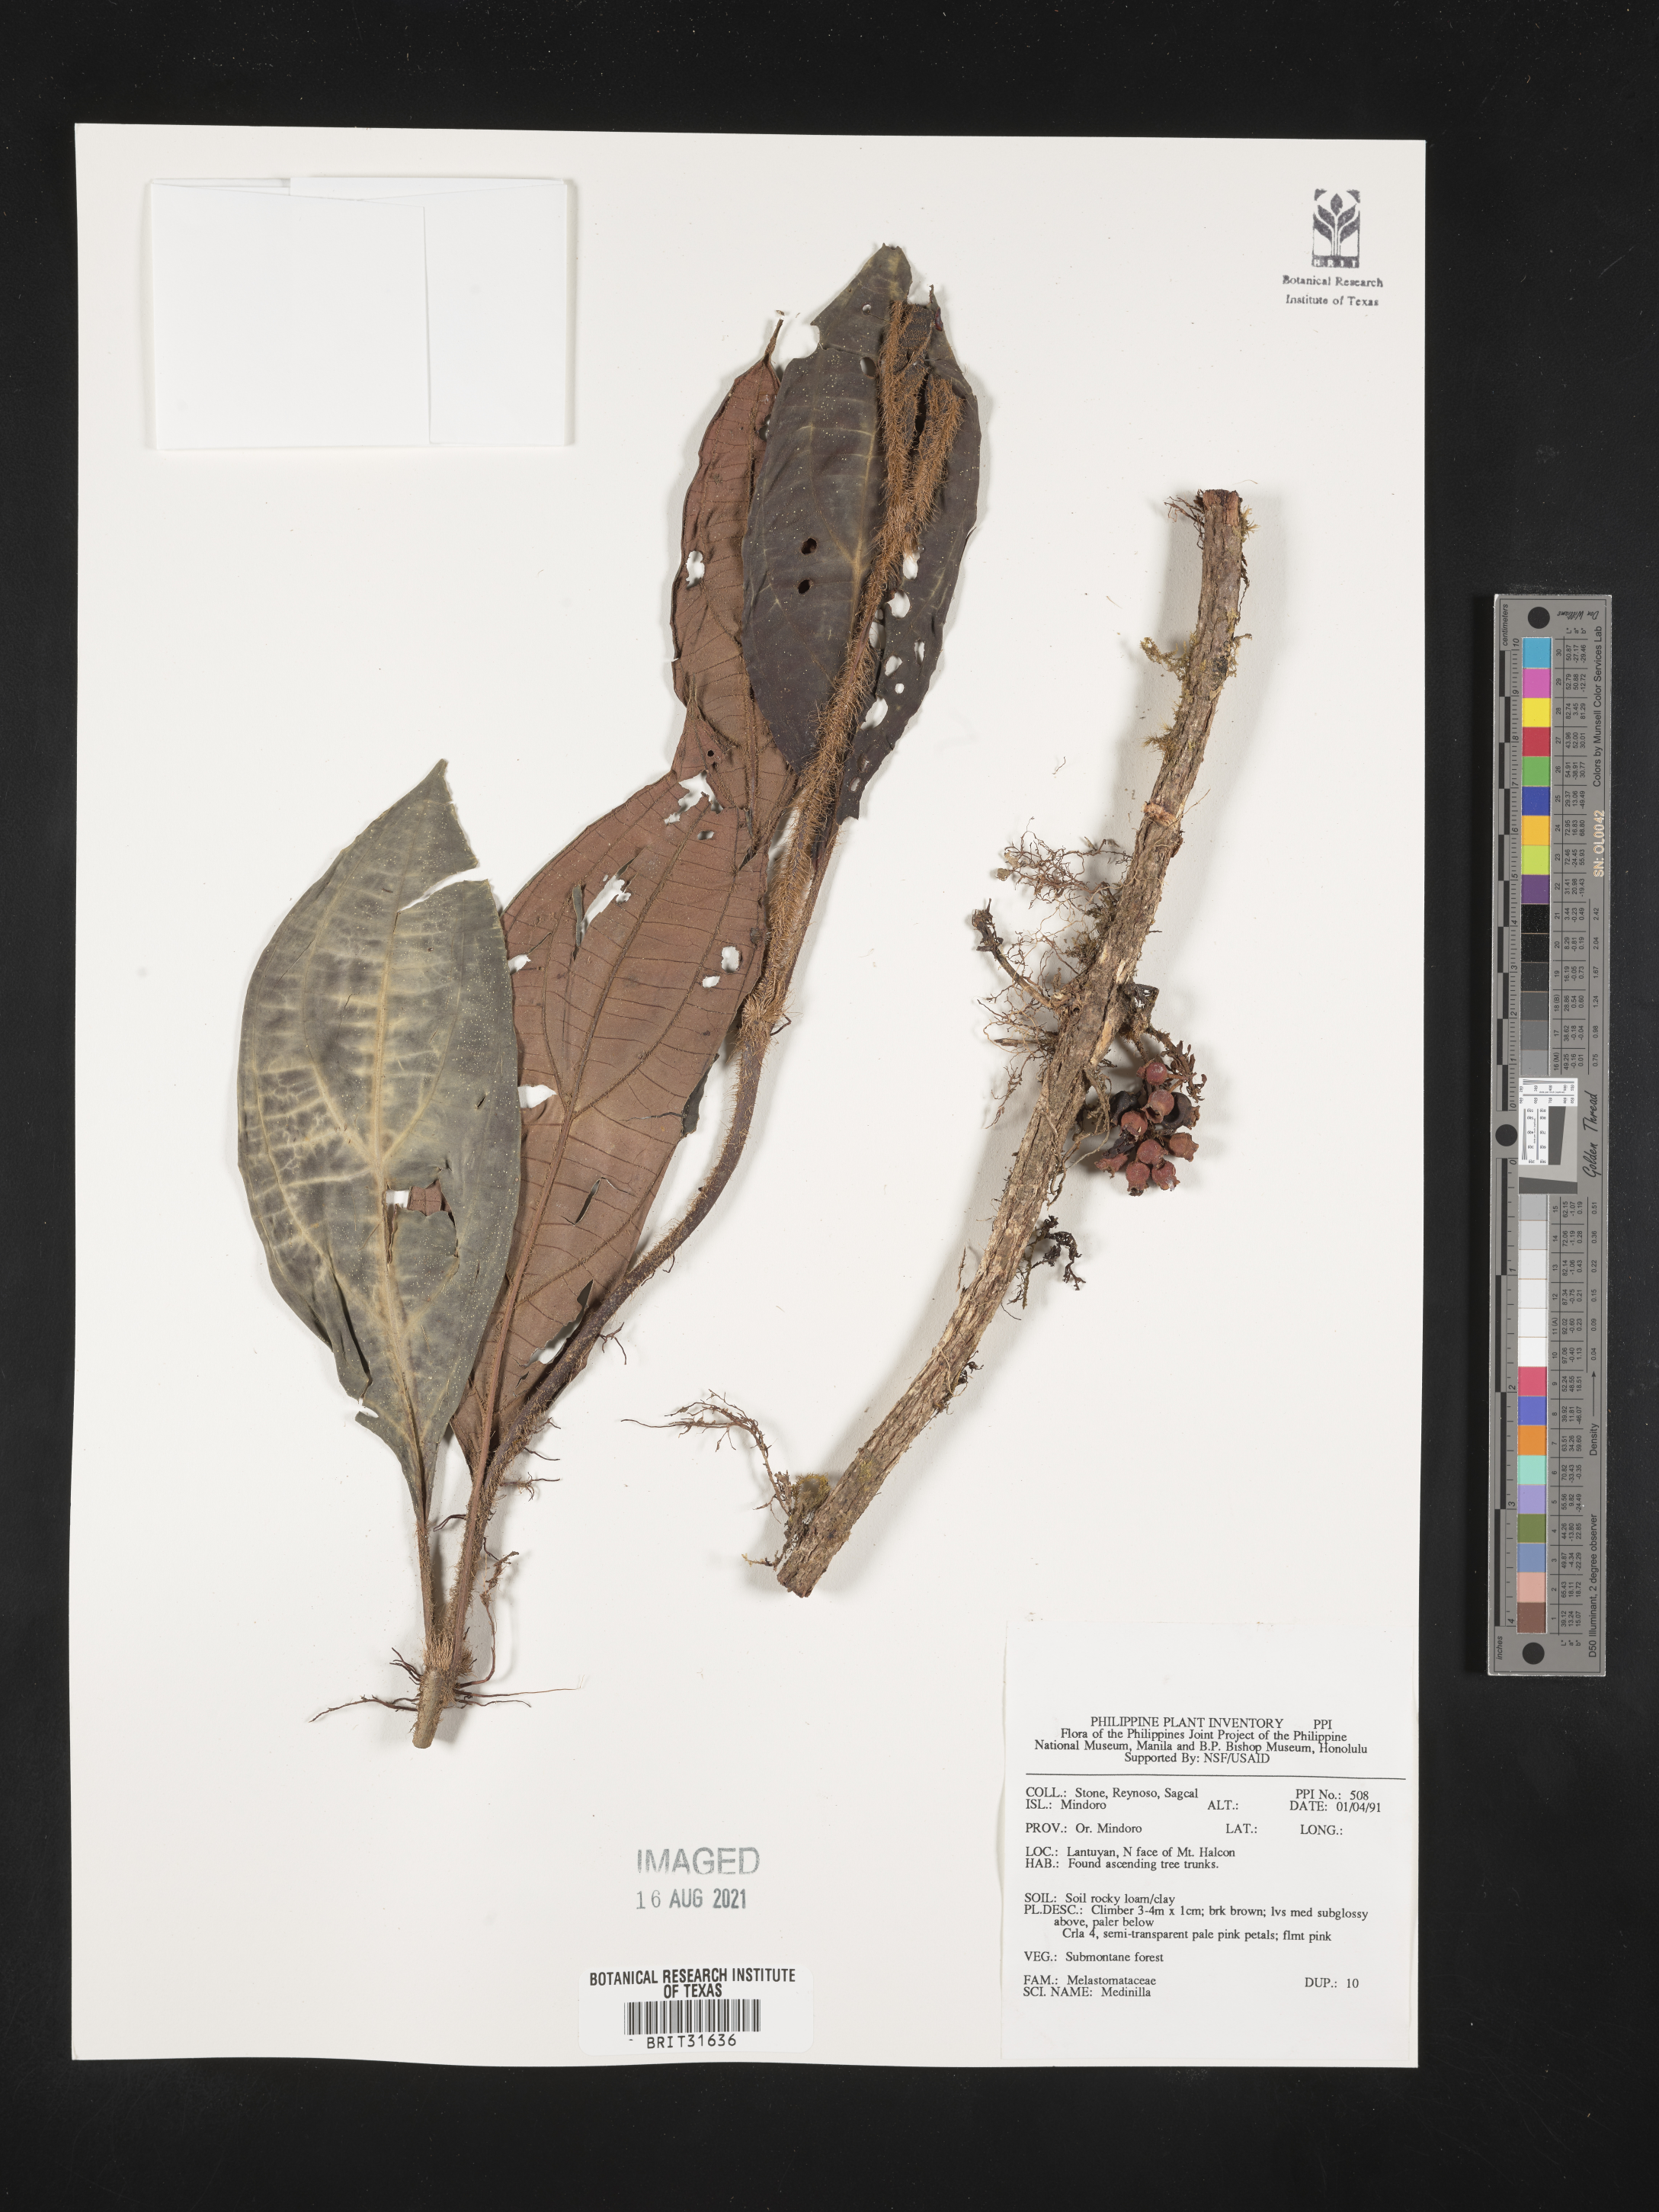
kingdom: Plantae
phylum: Tracheophyta
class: Magnoliopsida
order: Myrtales
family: Melastomataceae
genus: Medinilla
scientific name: Medinilla
